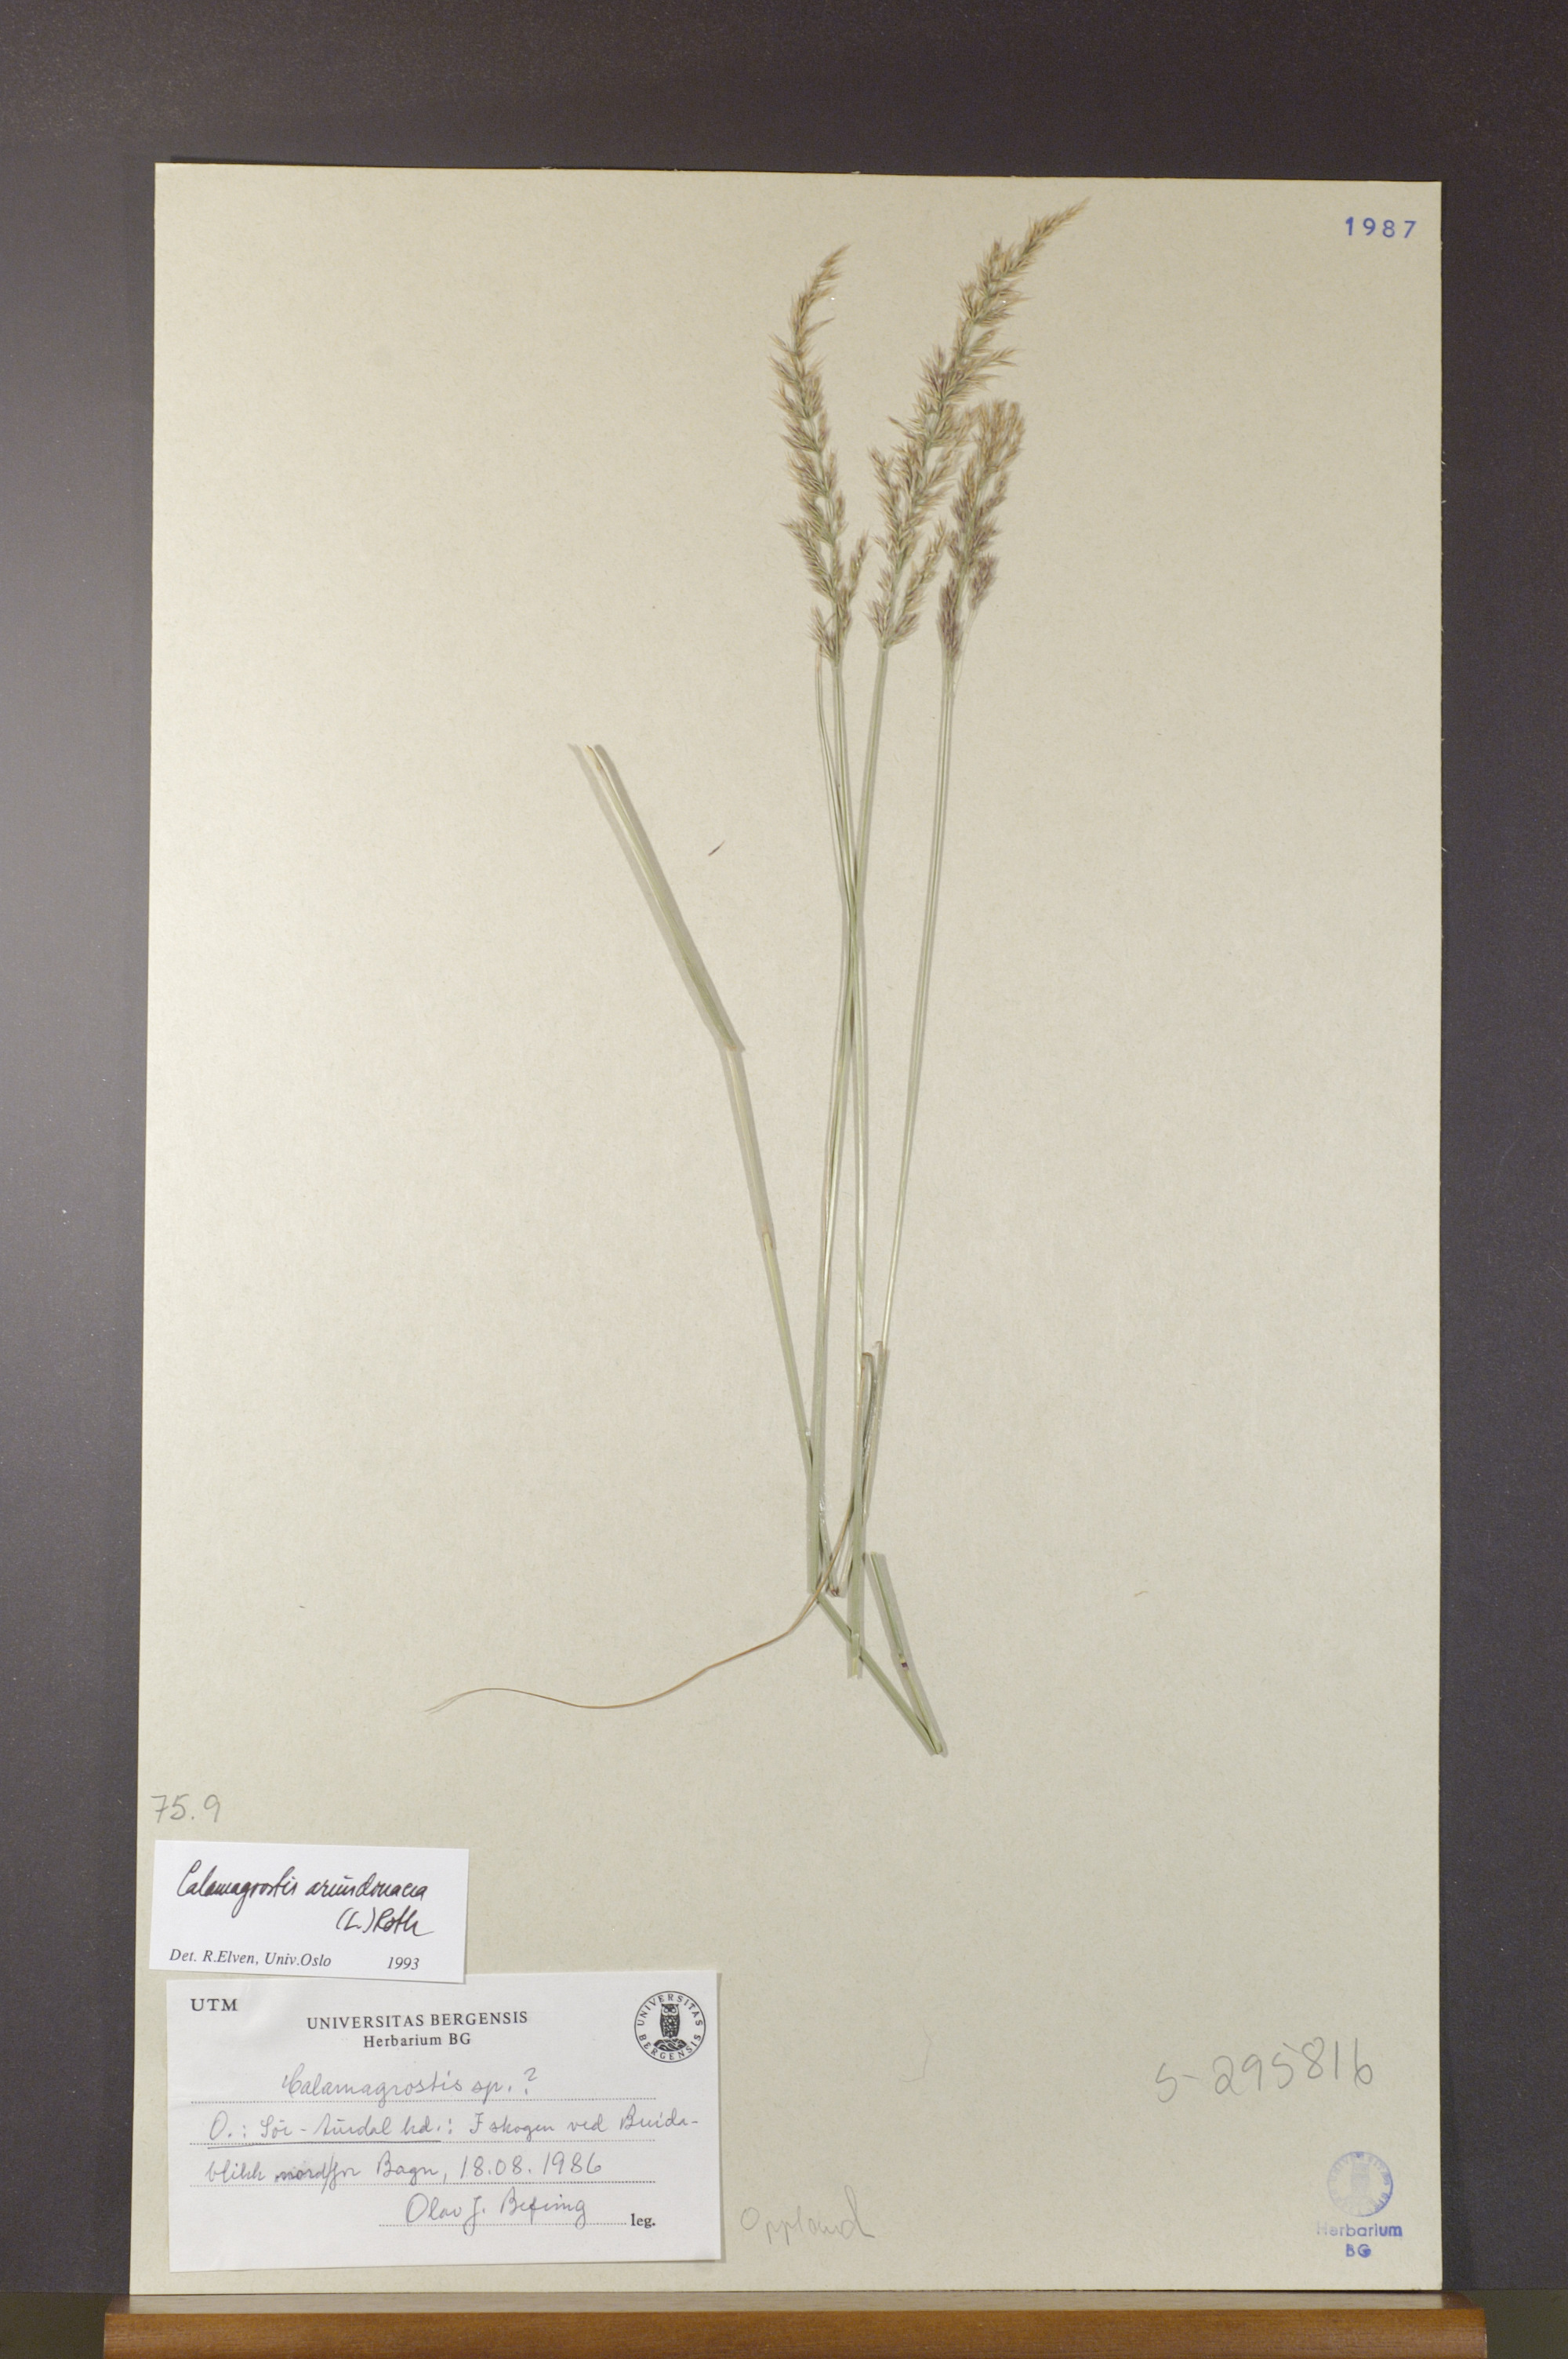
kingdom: Plantae
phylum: Tracheophyta
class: Liliopsida
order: Poales
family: Poaceae
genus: Calamagrostis
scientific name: Calamagrostis arundinacea
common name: Metskastik
